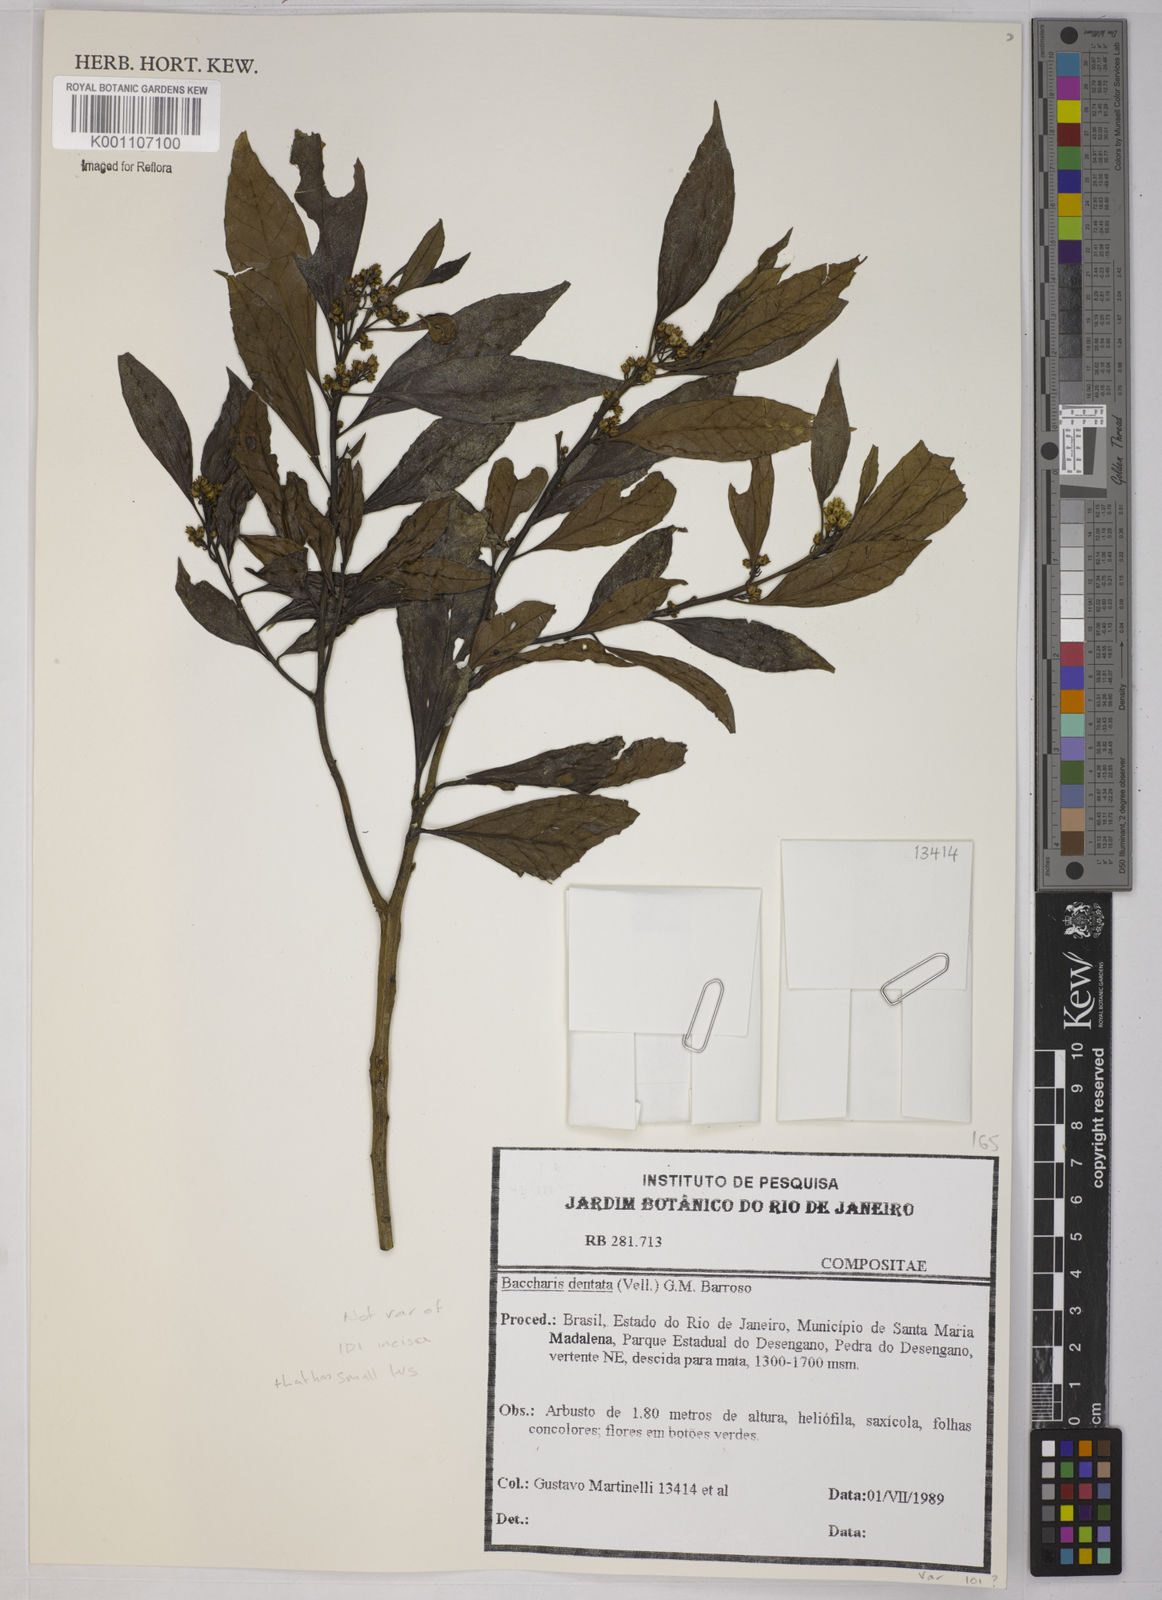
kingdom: Plantae
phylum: Tracheophyta
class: Magnoliopsida
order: Asterales
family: Asteraceae
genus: Baccharis
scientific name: Baccharis dentata
